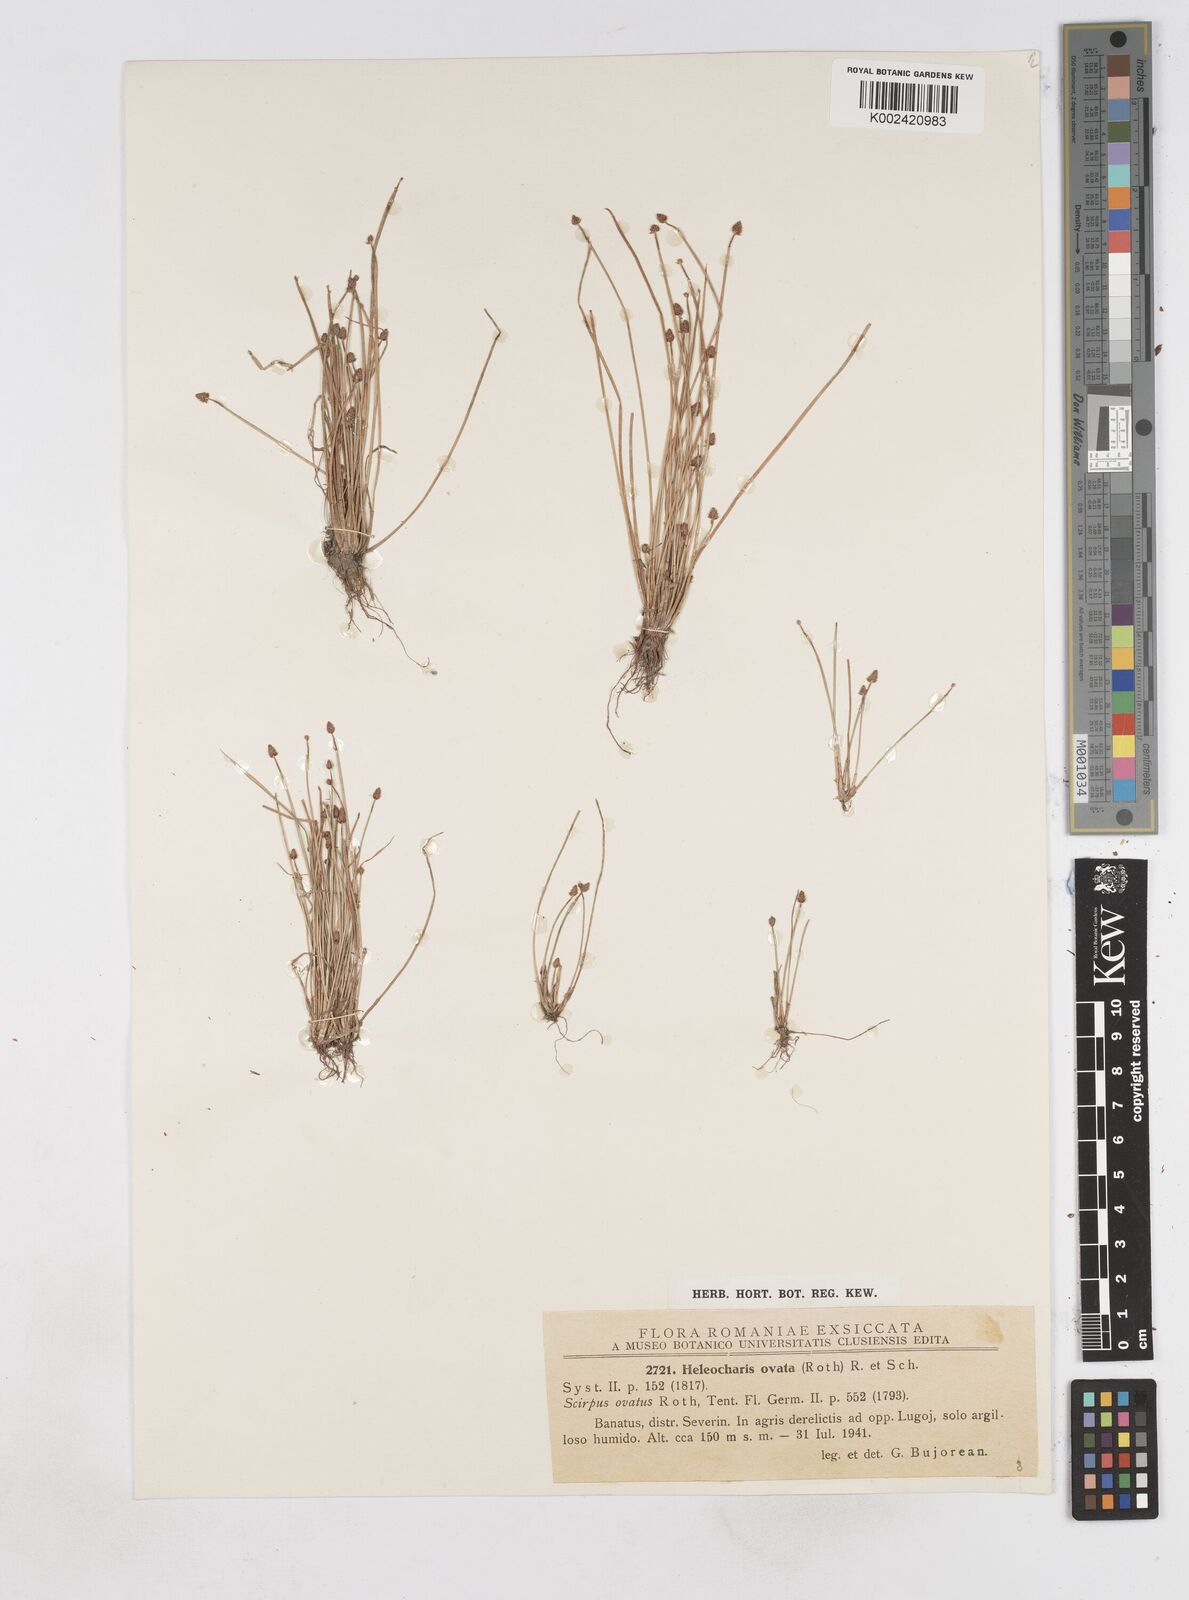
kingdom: Plantae
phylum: Tracheophyta
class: Liliopsida
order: Poales
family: Cyperaceae
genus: Eleocharis
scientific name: Eleocharis ovata
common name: Oval spike-rush
